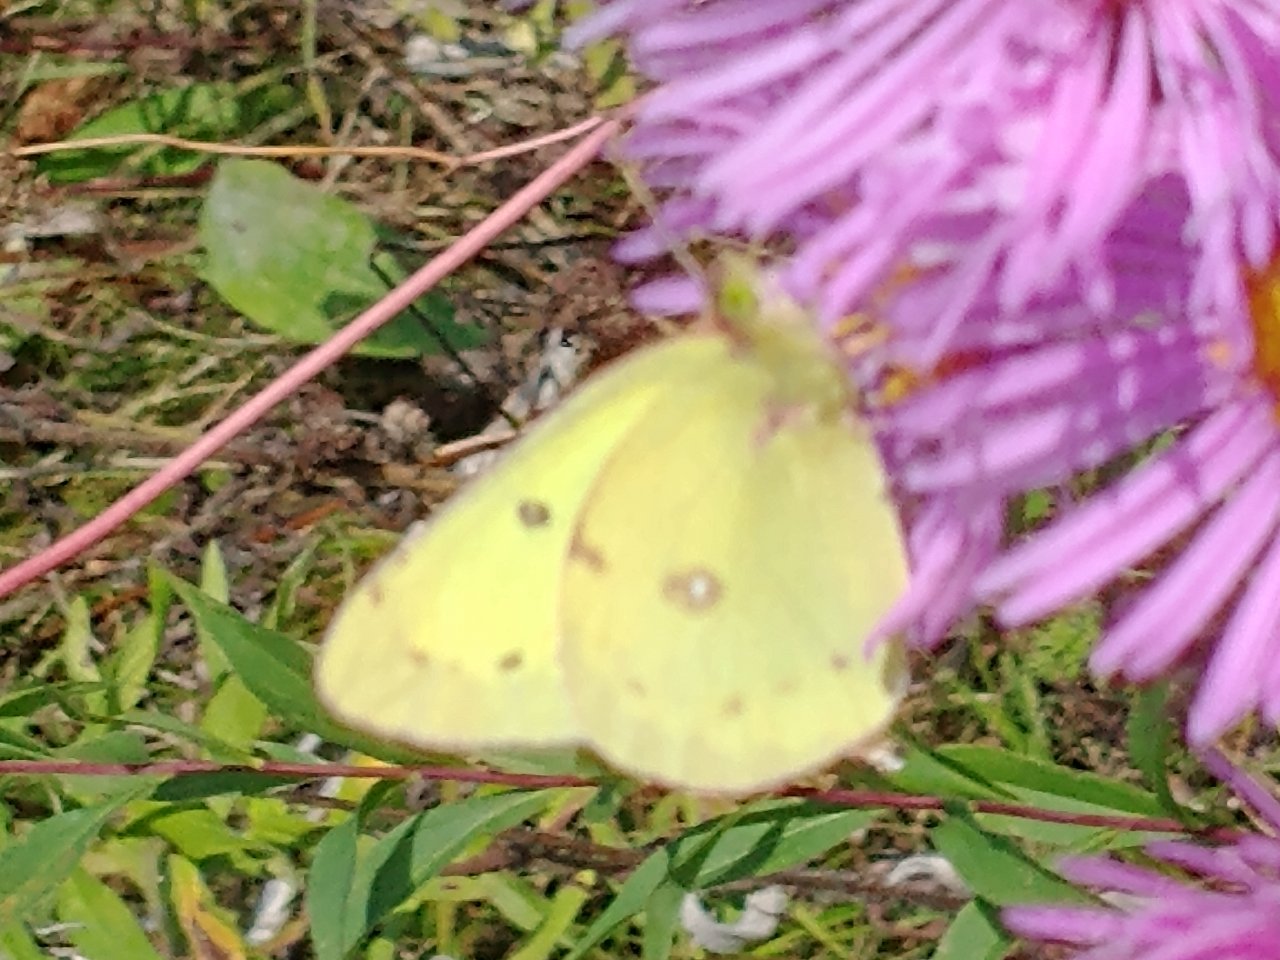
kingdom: Animalia
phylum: Arthropoda
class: Insecta
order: Lepidoptera
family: Pieridae
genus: Colias
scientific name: Colias philodice
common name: Clouded Sulphur
